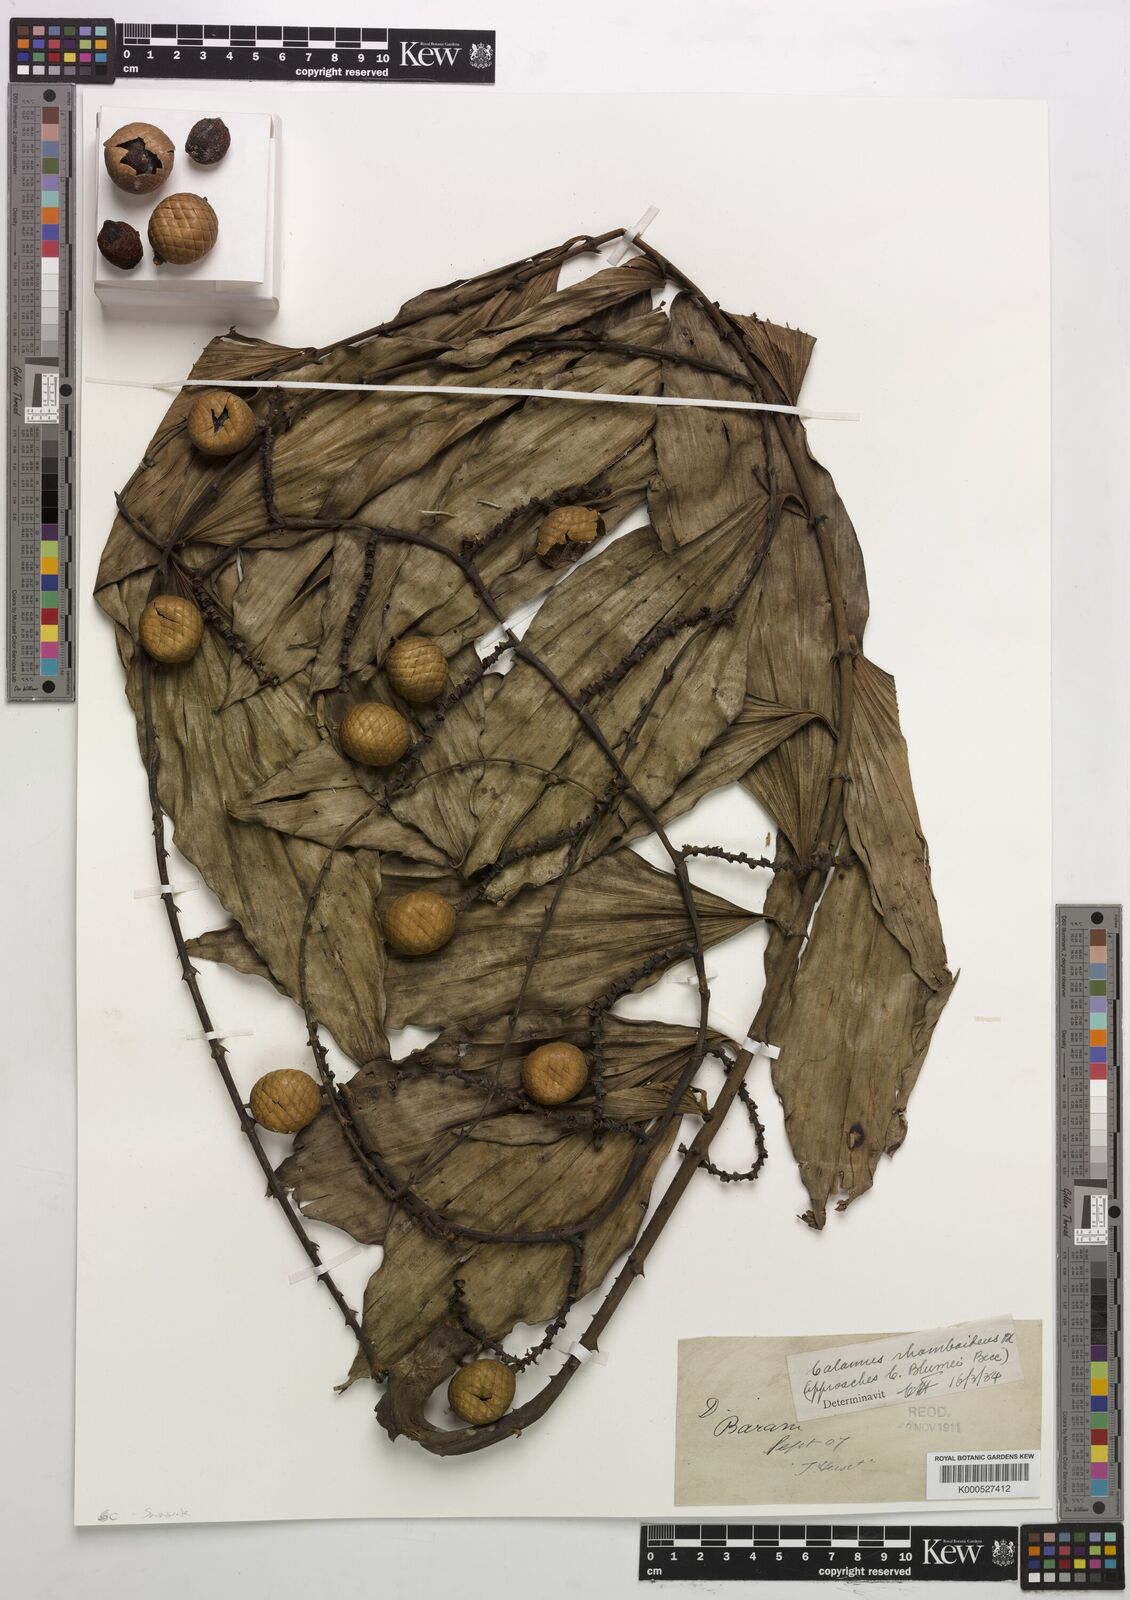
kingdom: Plantae
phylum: Tracheophyta
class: Liliopsida
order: Arecales
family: Arecaceae
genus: Calamus
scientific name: Calamus rhomboideus
